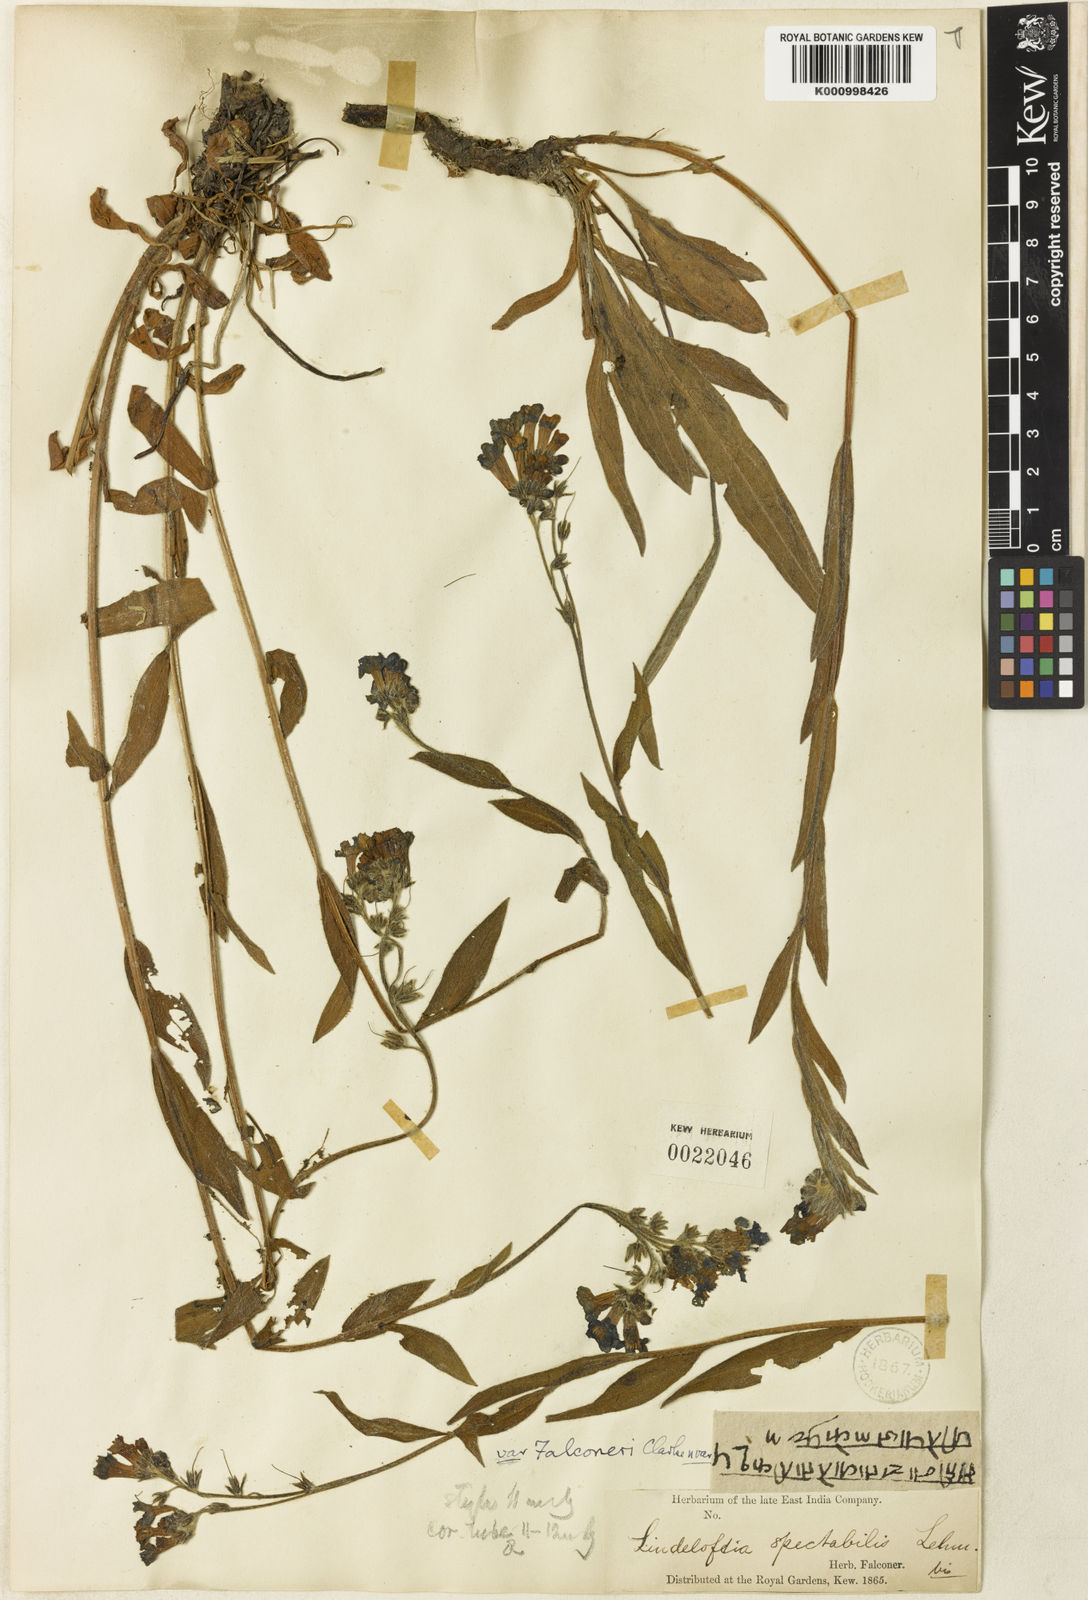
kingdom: Plantae
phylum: Tracheophyta
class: Magnoliopsida
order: Boraginales
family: Boraginaceae
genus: Lindelofia
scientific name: Lindelofia longiflora
